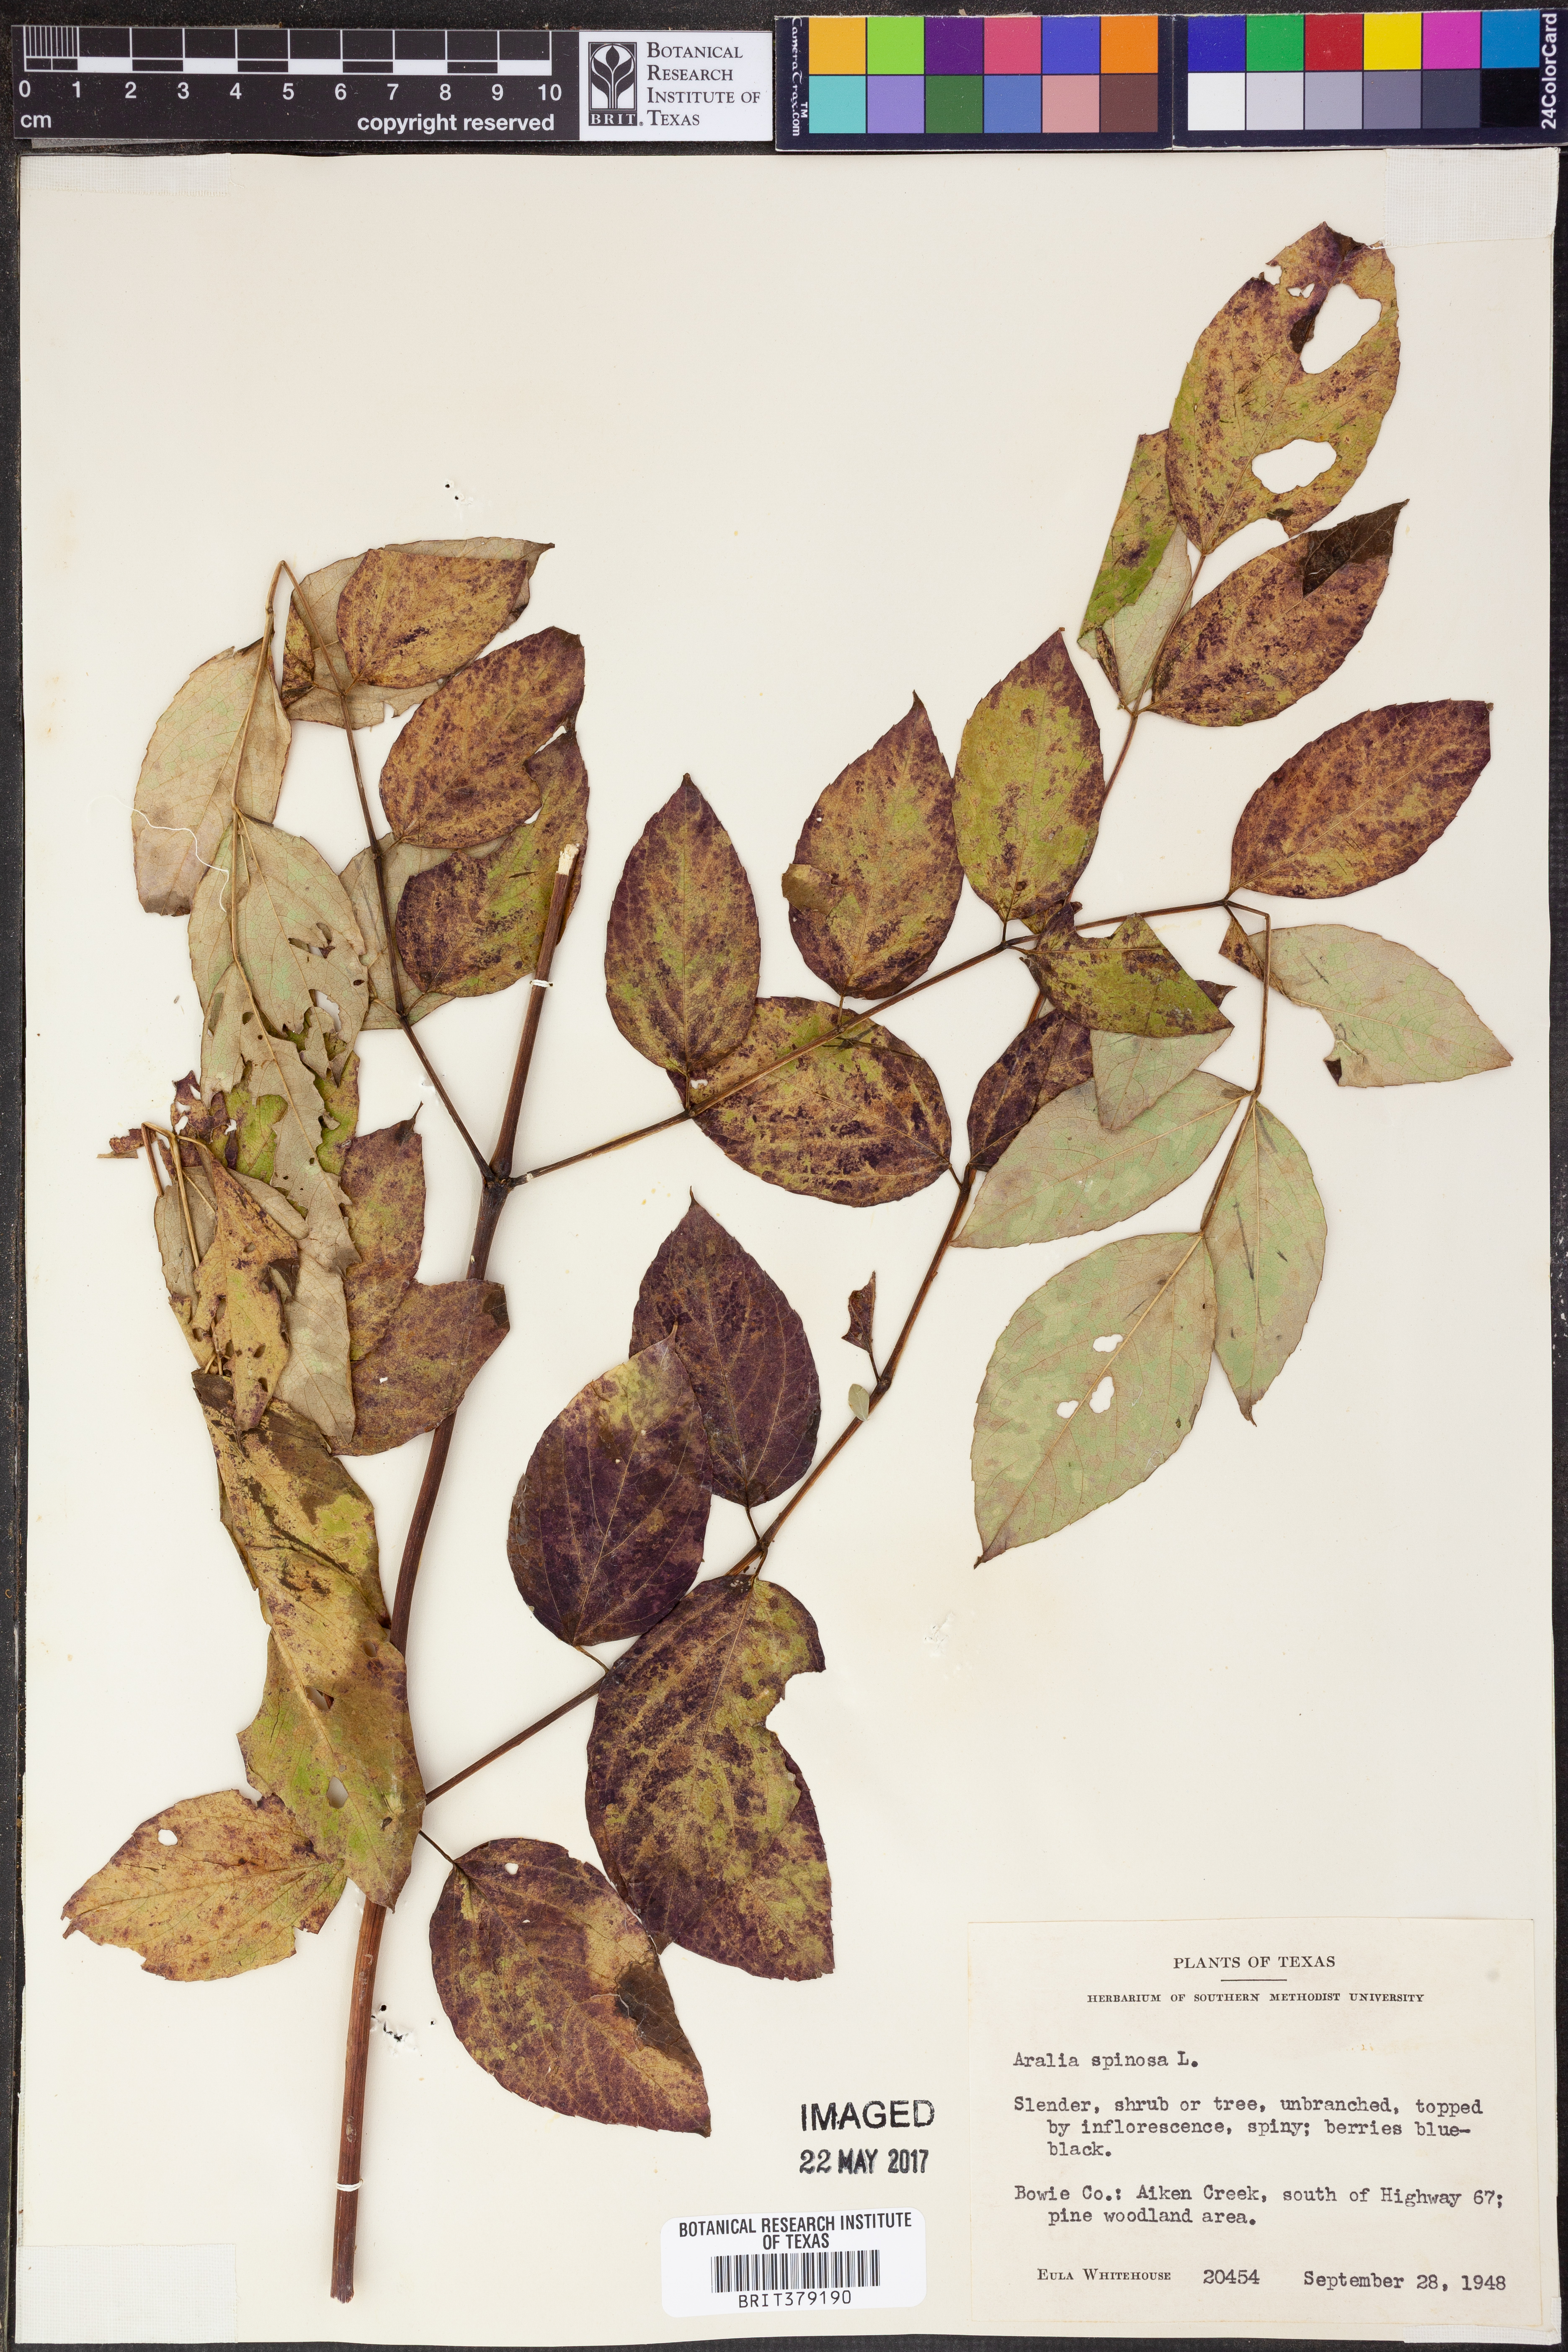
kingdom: Plantae
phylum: Tracheophyta
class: Magnoliopsida
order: Apiales
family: Araliaceae
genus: Aralia
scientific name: Aralia spinifolia
